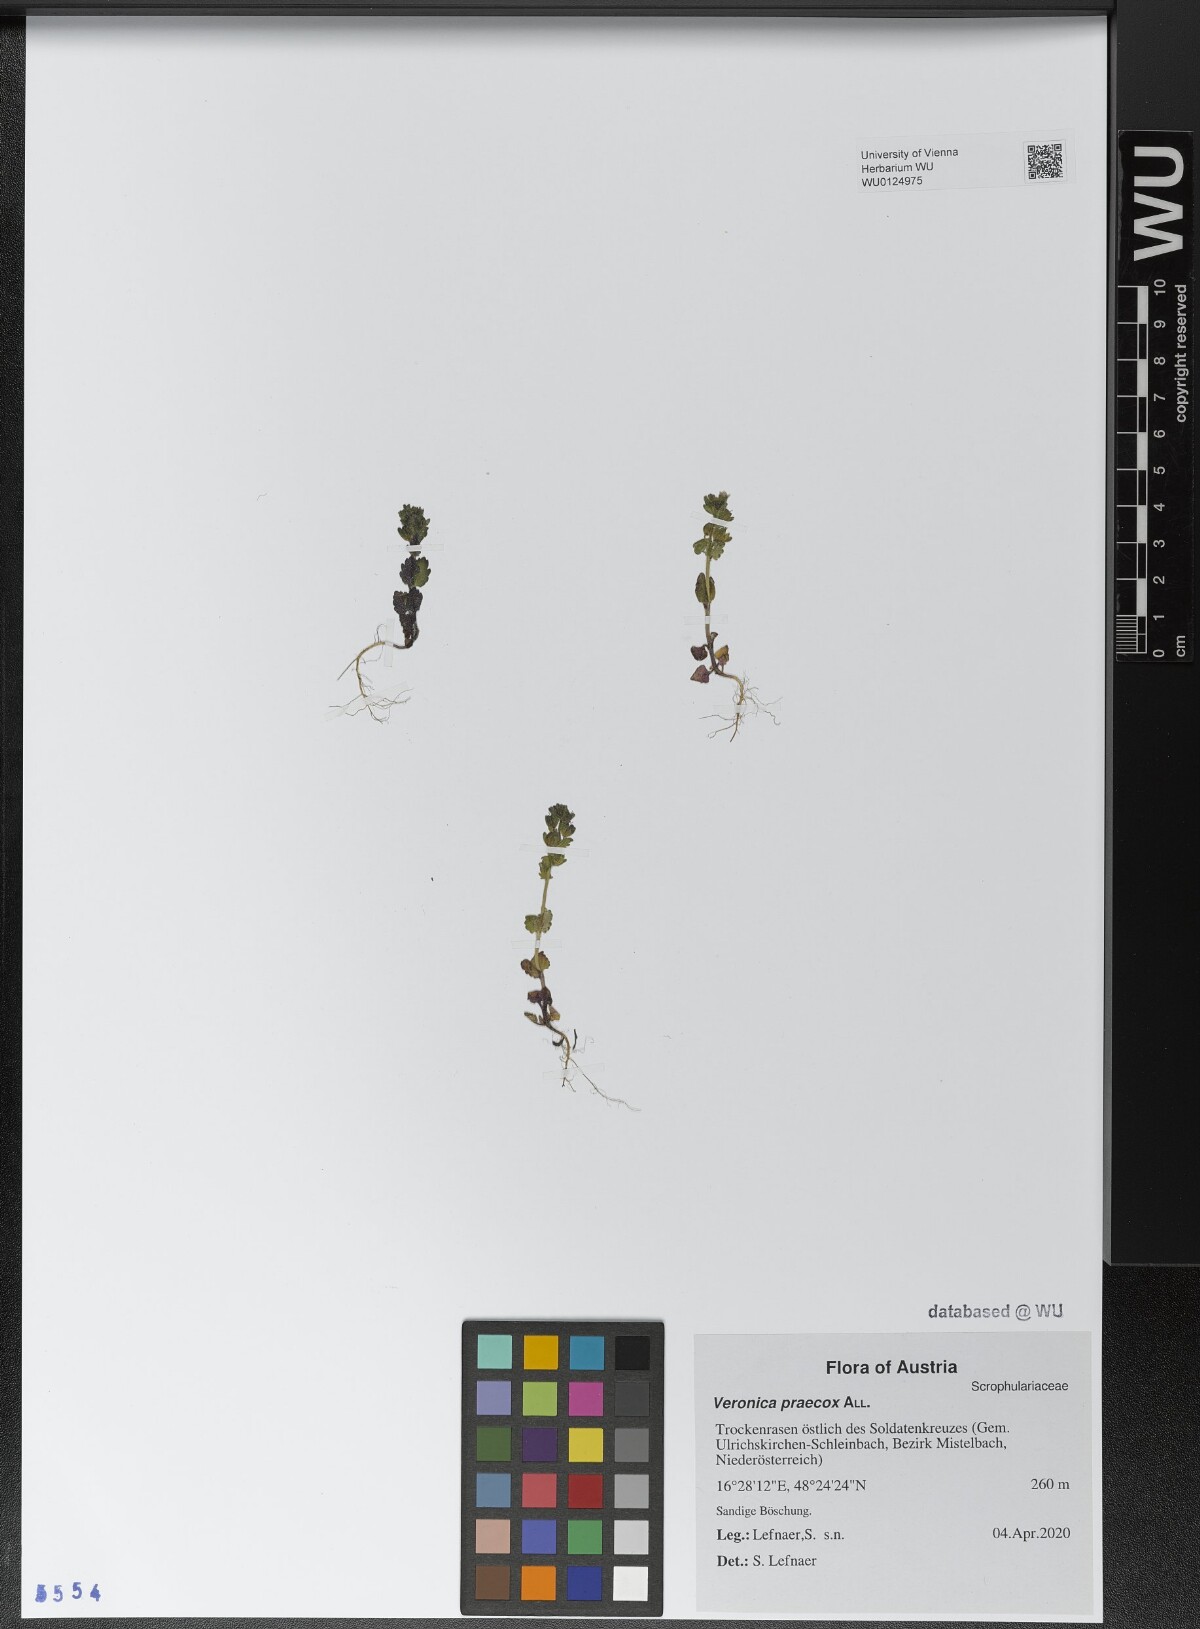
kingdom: Plantae
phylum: Tracheophyta
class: Magnoliopsida
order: Lamiales
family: Plantaginaceae
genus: Veronica
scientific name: Veronica praecox
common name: Breckland speedwell
